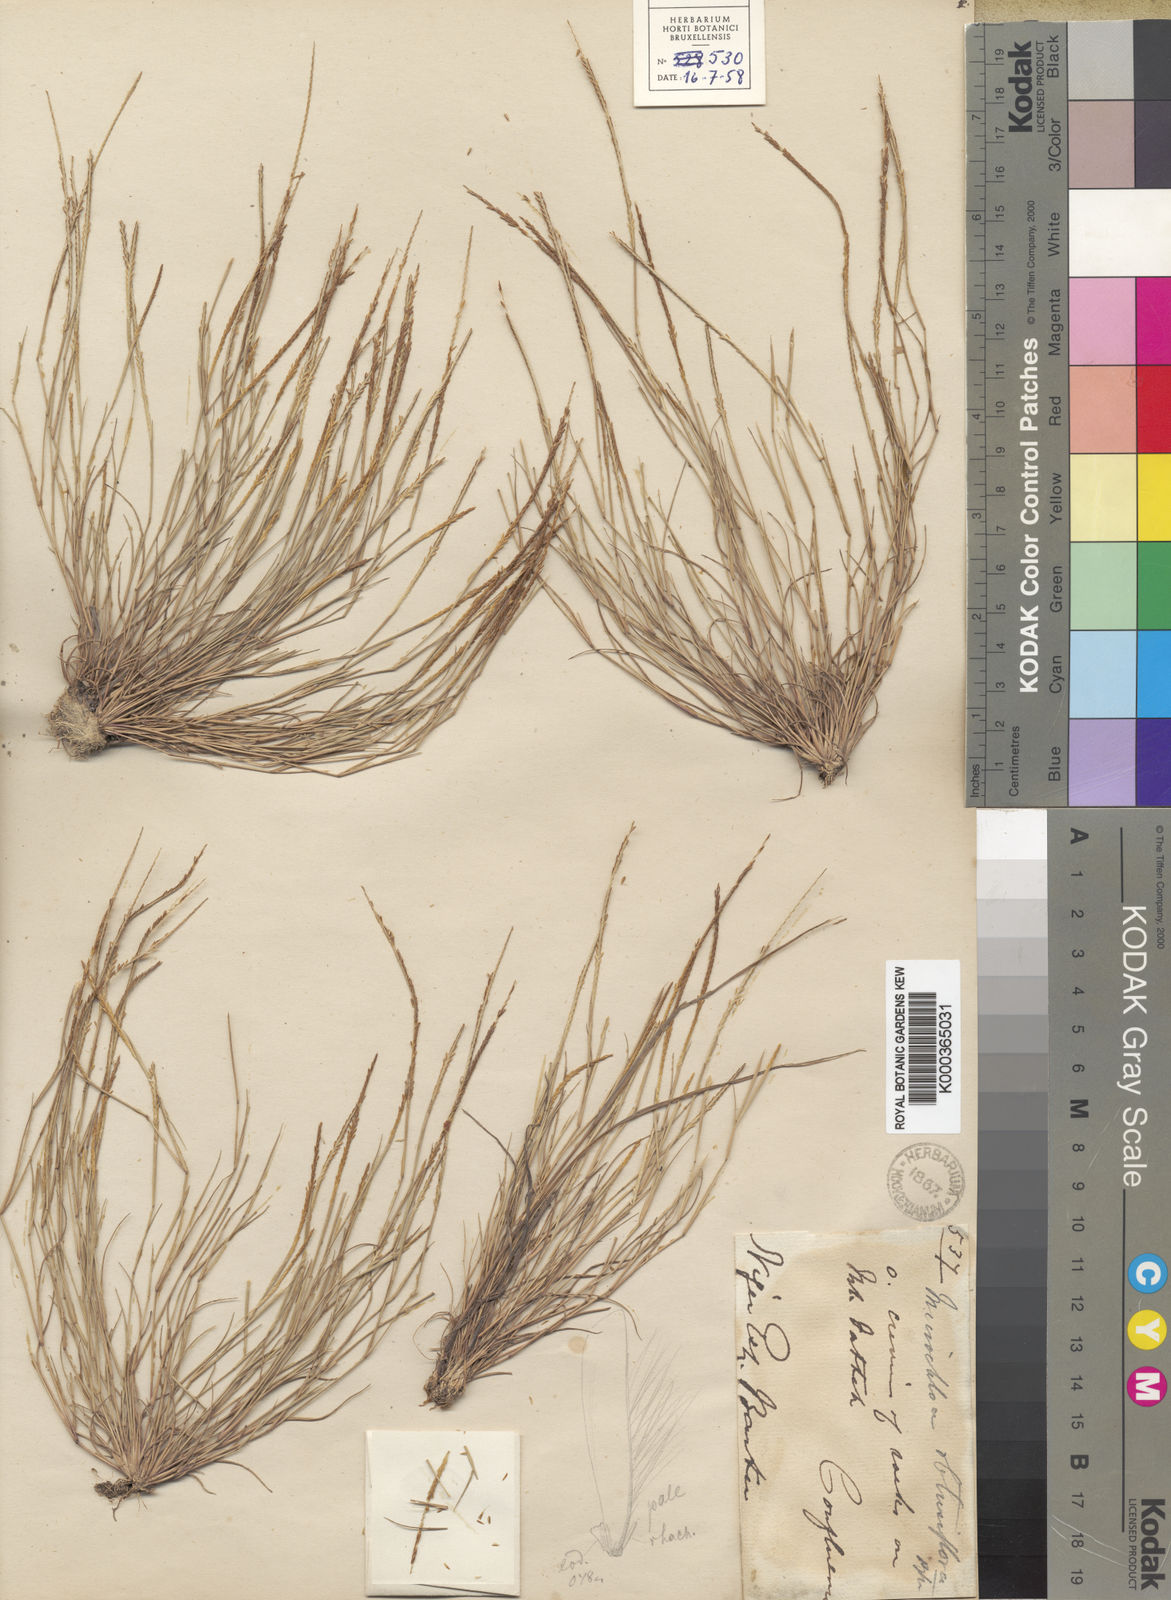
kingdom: Plantae
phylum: Tracheophyta
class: Liliopsida
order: Poales
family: Poaceae
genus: Micrachne
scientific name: Micrachne obtusiflora
